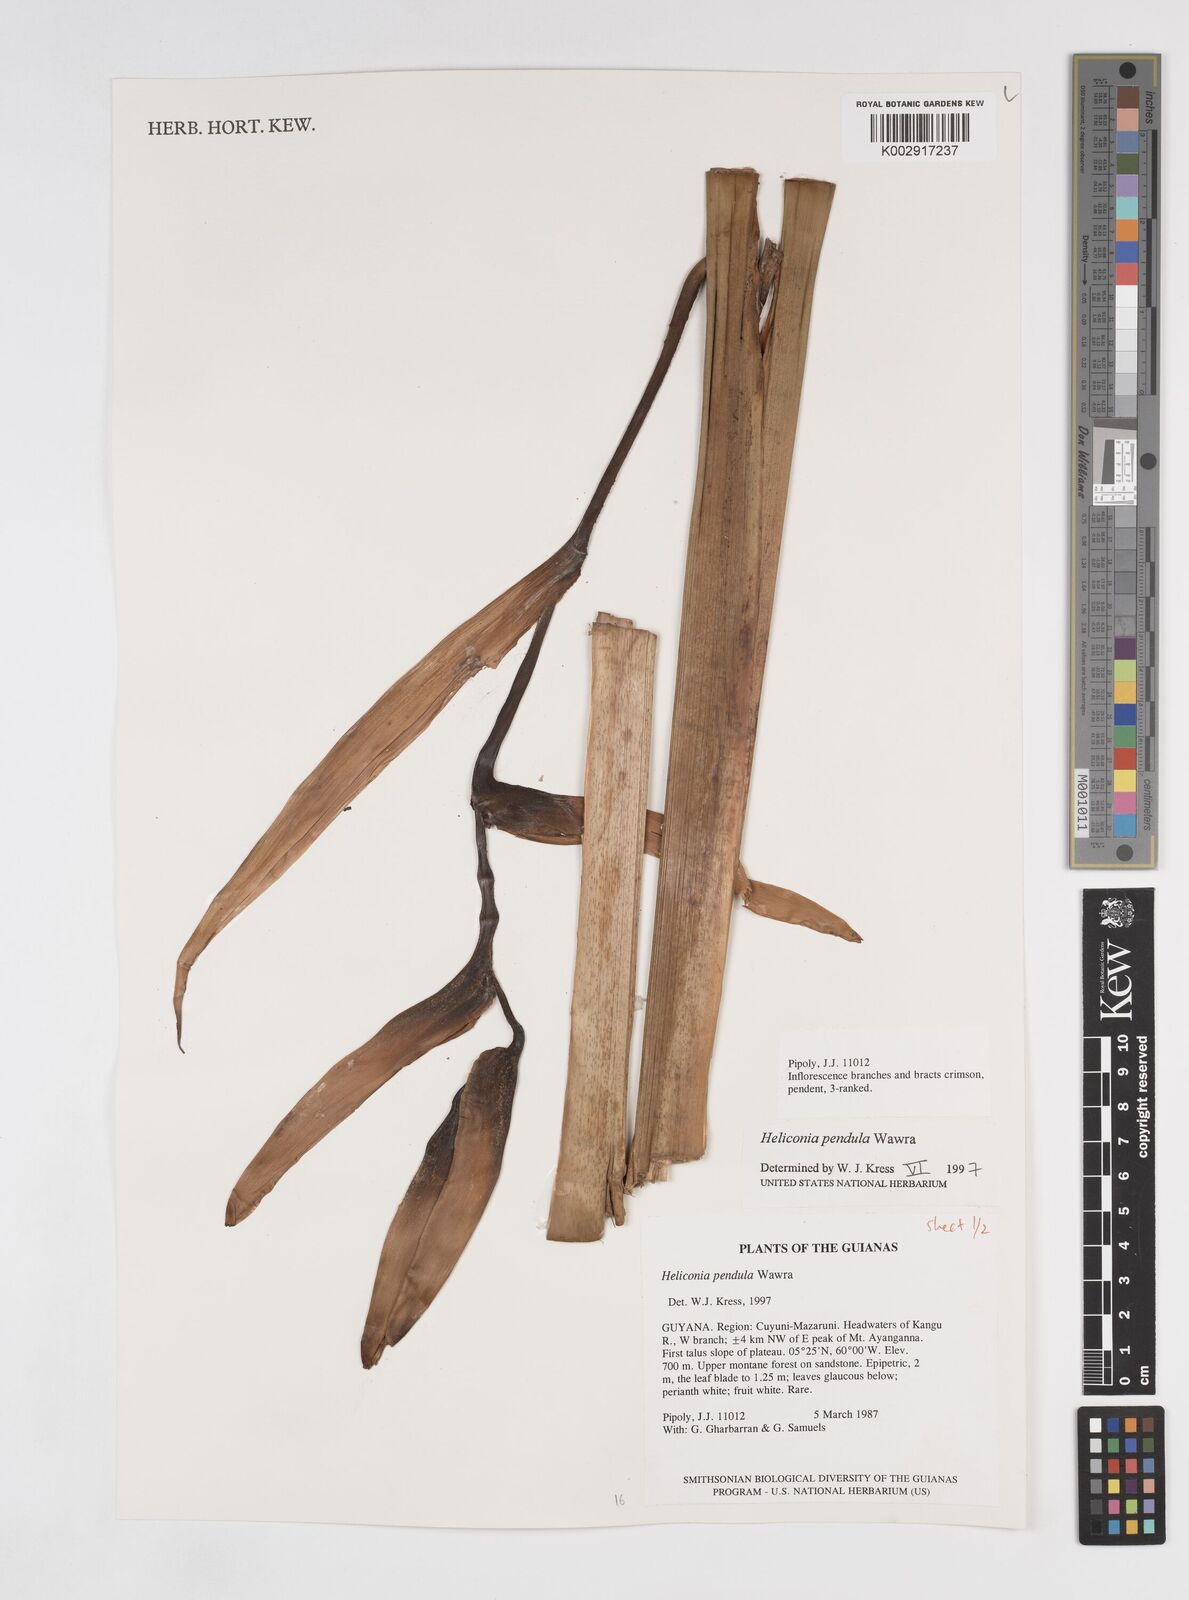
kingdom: Plantae
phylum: Tracheophyta
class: Liliopsida
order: Zingiberales
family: Heliconiaceae
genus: Heliconia
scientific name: Heliconia pendula
